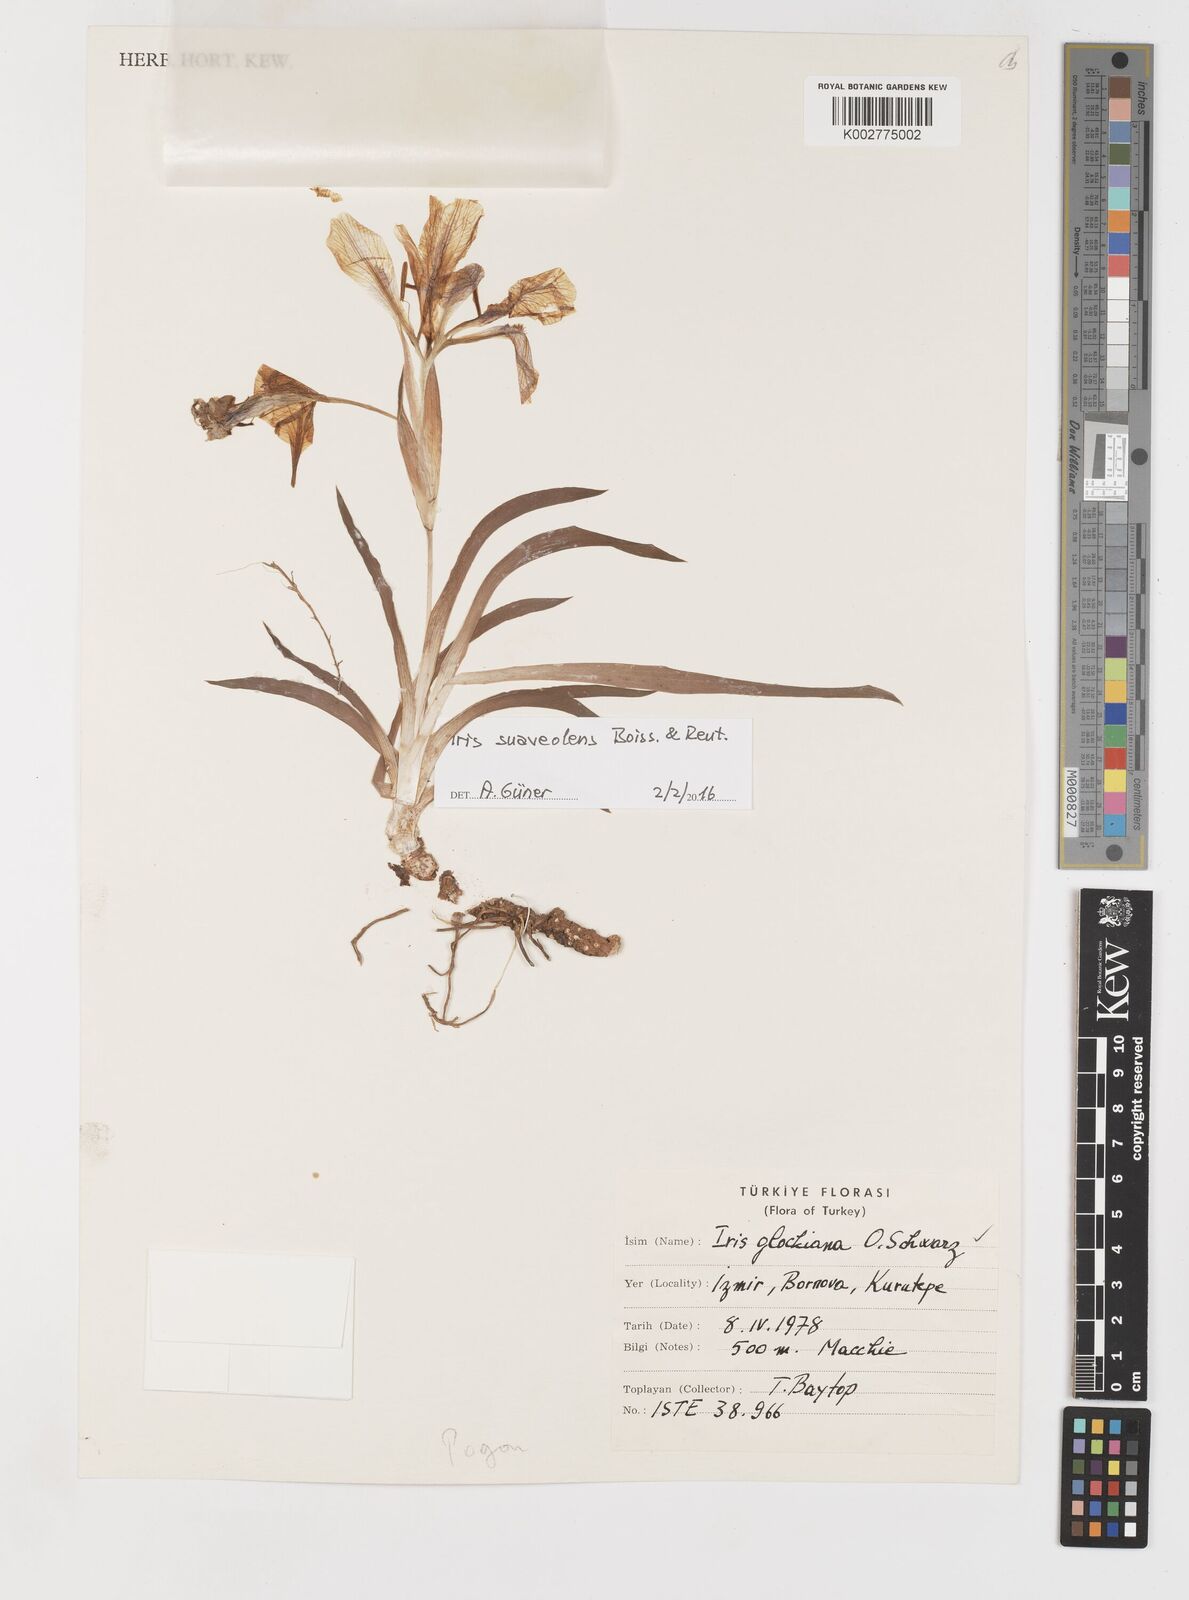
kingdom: Plantae
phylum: Tracheophyta
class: Liliopsida
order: Asparagales
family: Iridaceae
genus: Iris
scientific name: Iris suaveolens
